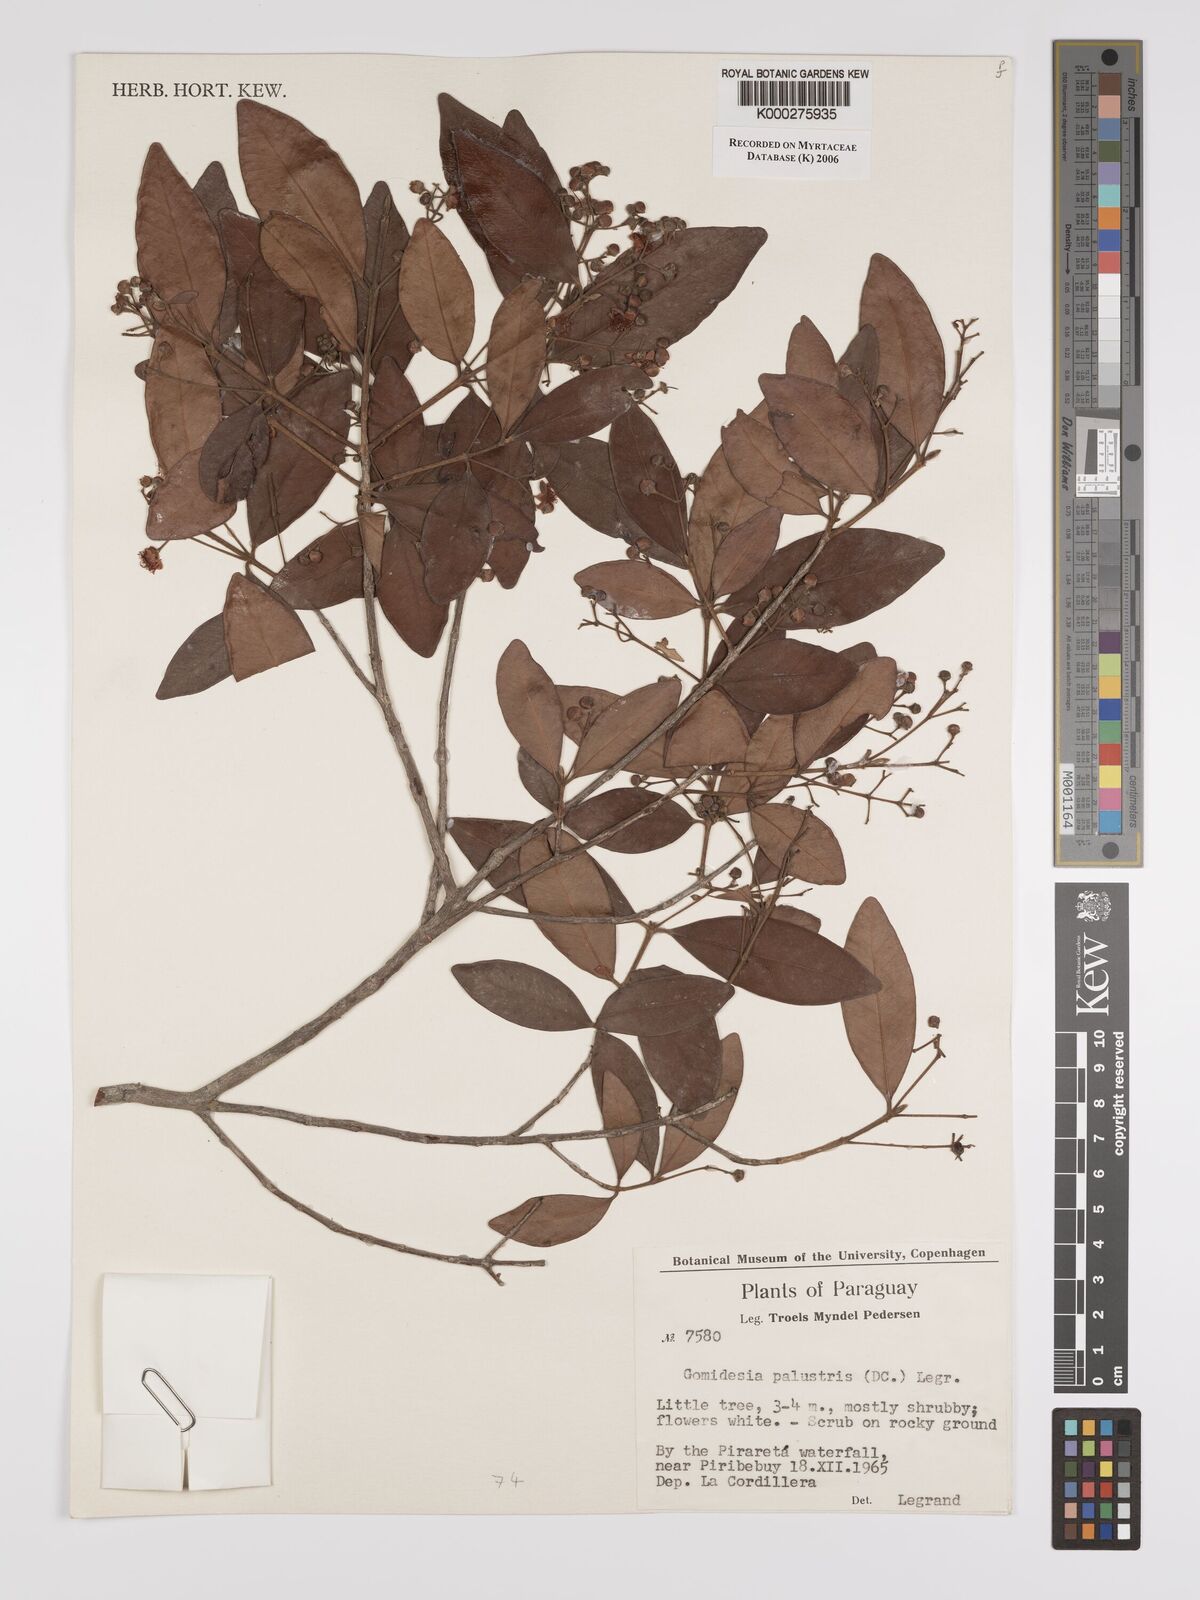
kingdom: Plantae
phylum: Tracheophyta
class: Magnoliopsida
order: Myrtales
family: Myrtaceae
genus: Myrcia
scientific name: Myrcia palustris
